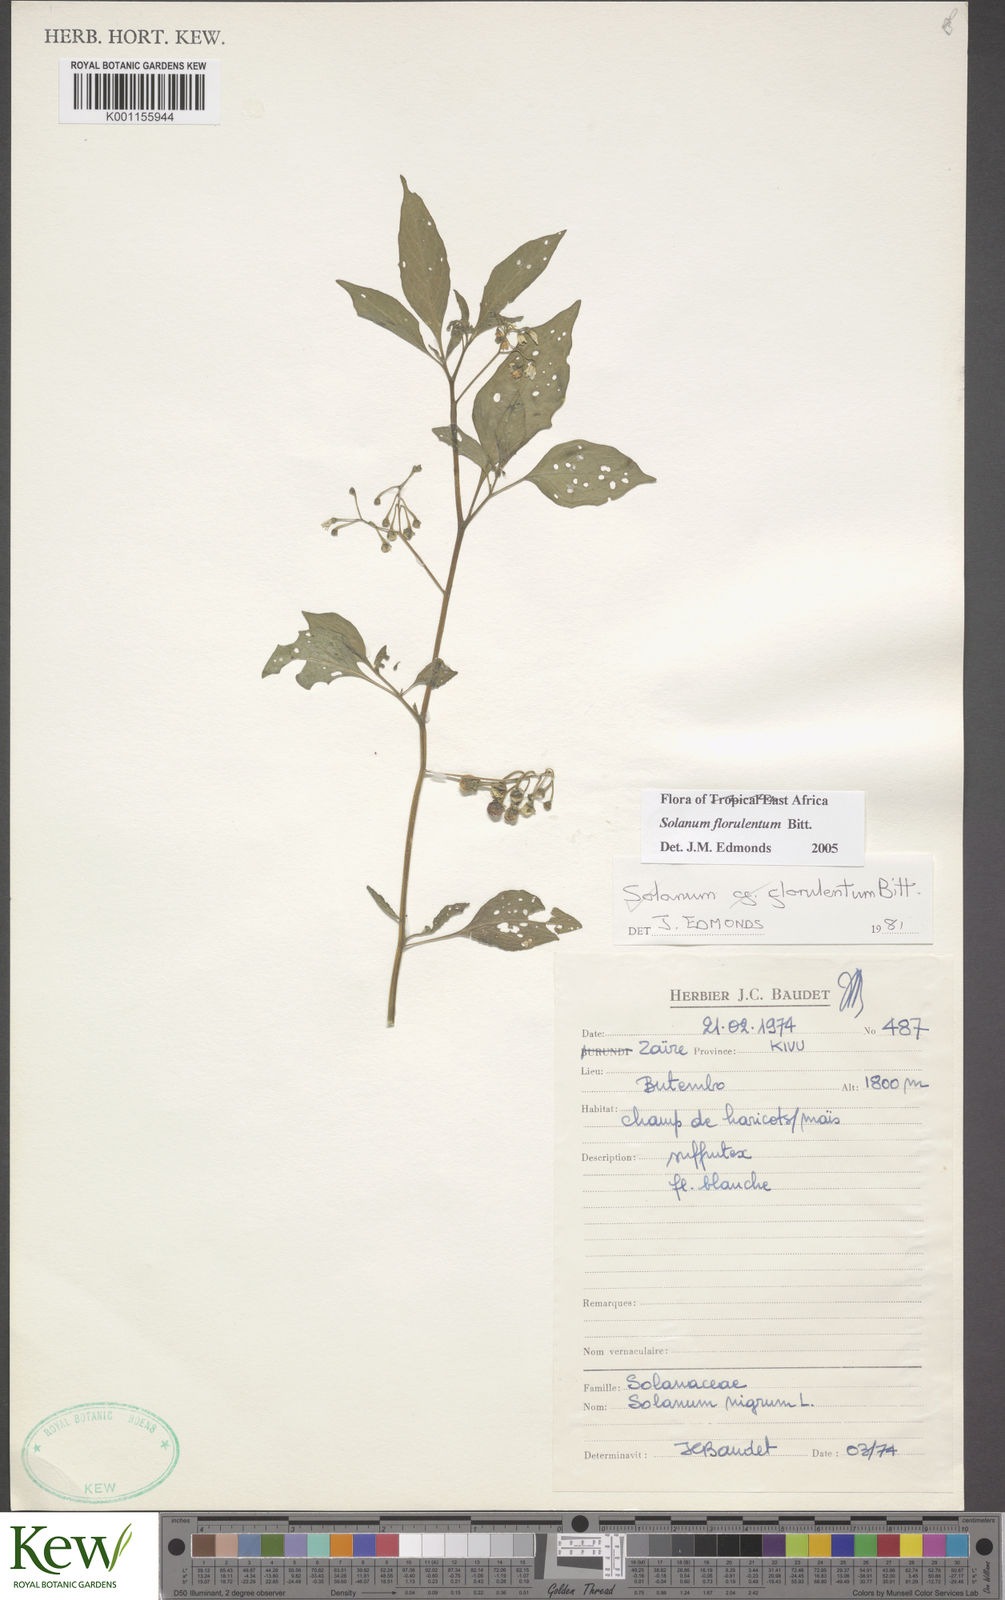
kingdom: Plantae
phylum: Tracheophyta
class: Magnoliopsida
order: Solanales
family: Solanaceae
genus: Solanum
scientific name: Solanum tarderemotum
